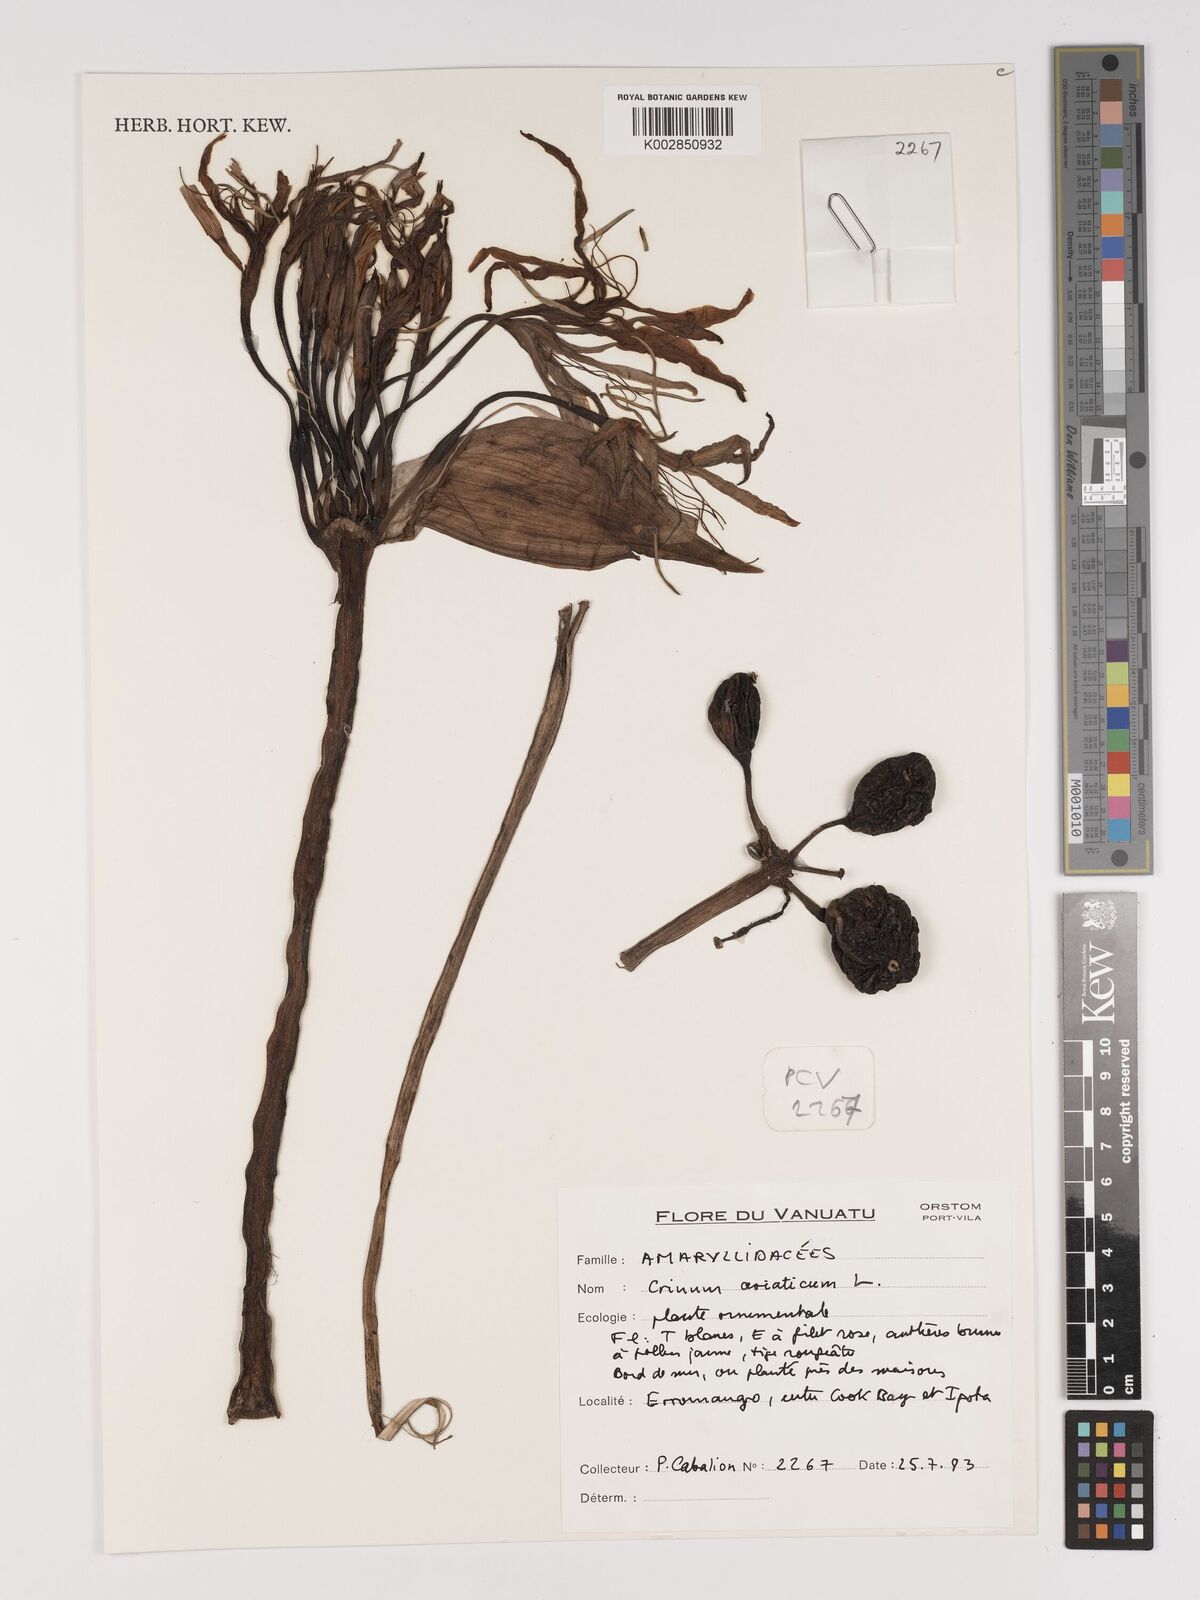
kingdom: Plantae
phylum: Tracheophyta
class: Liliopsida
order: Asparagales
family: Amaryllidaceae
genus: Crinum
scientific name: Crinum asiaticum
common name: Poisonbulb
